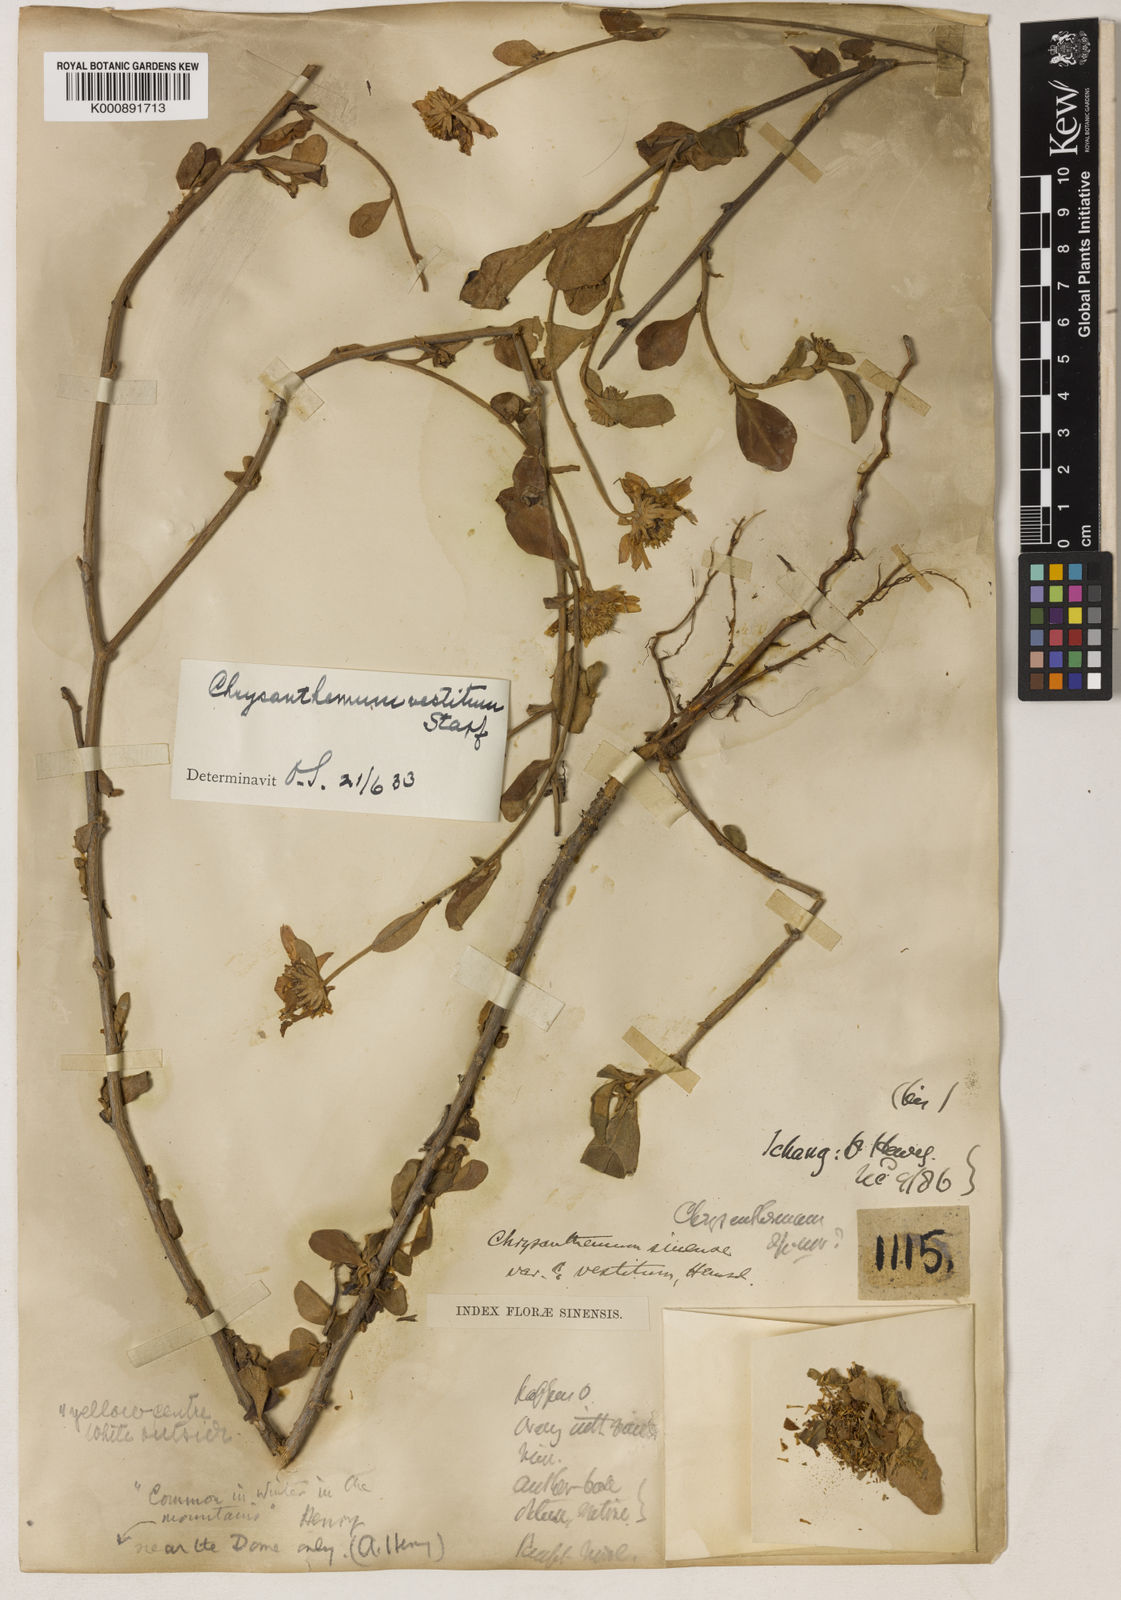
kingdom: Plantae
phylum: Tracheophyta
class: Magnoliopsida
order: Asterales
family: Asteraceae
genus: Chrysanthemum
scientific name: Chrysanthemum vestitum
